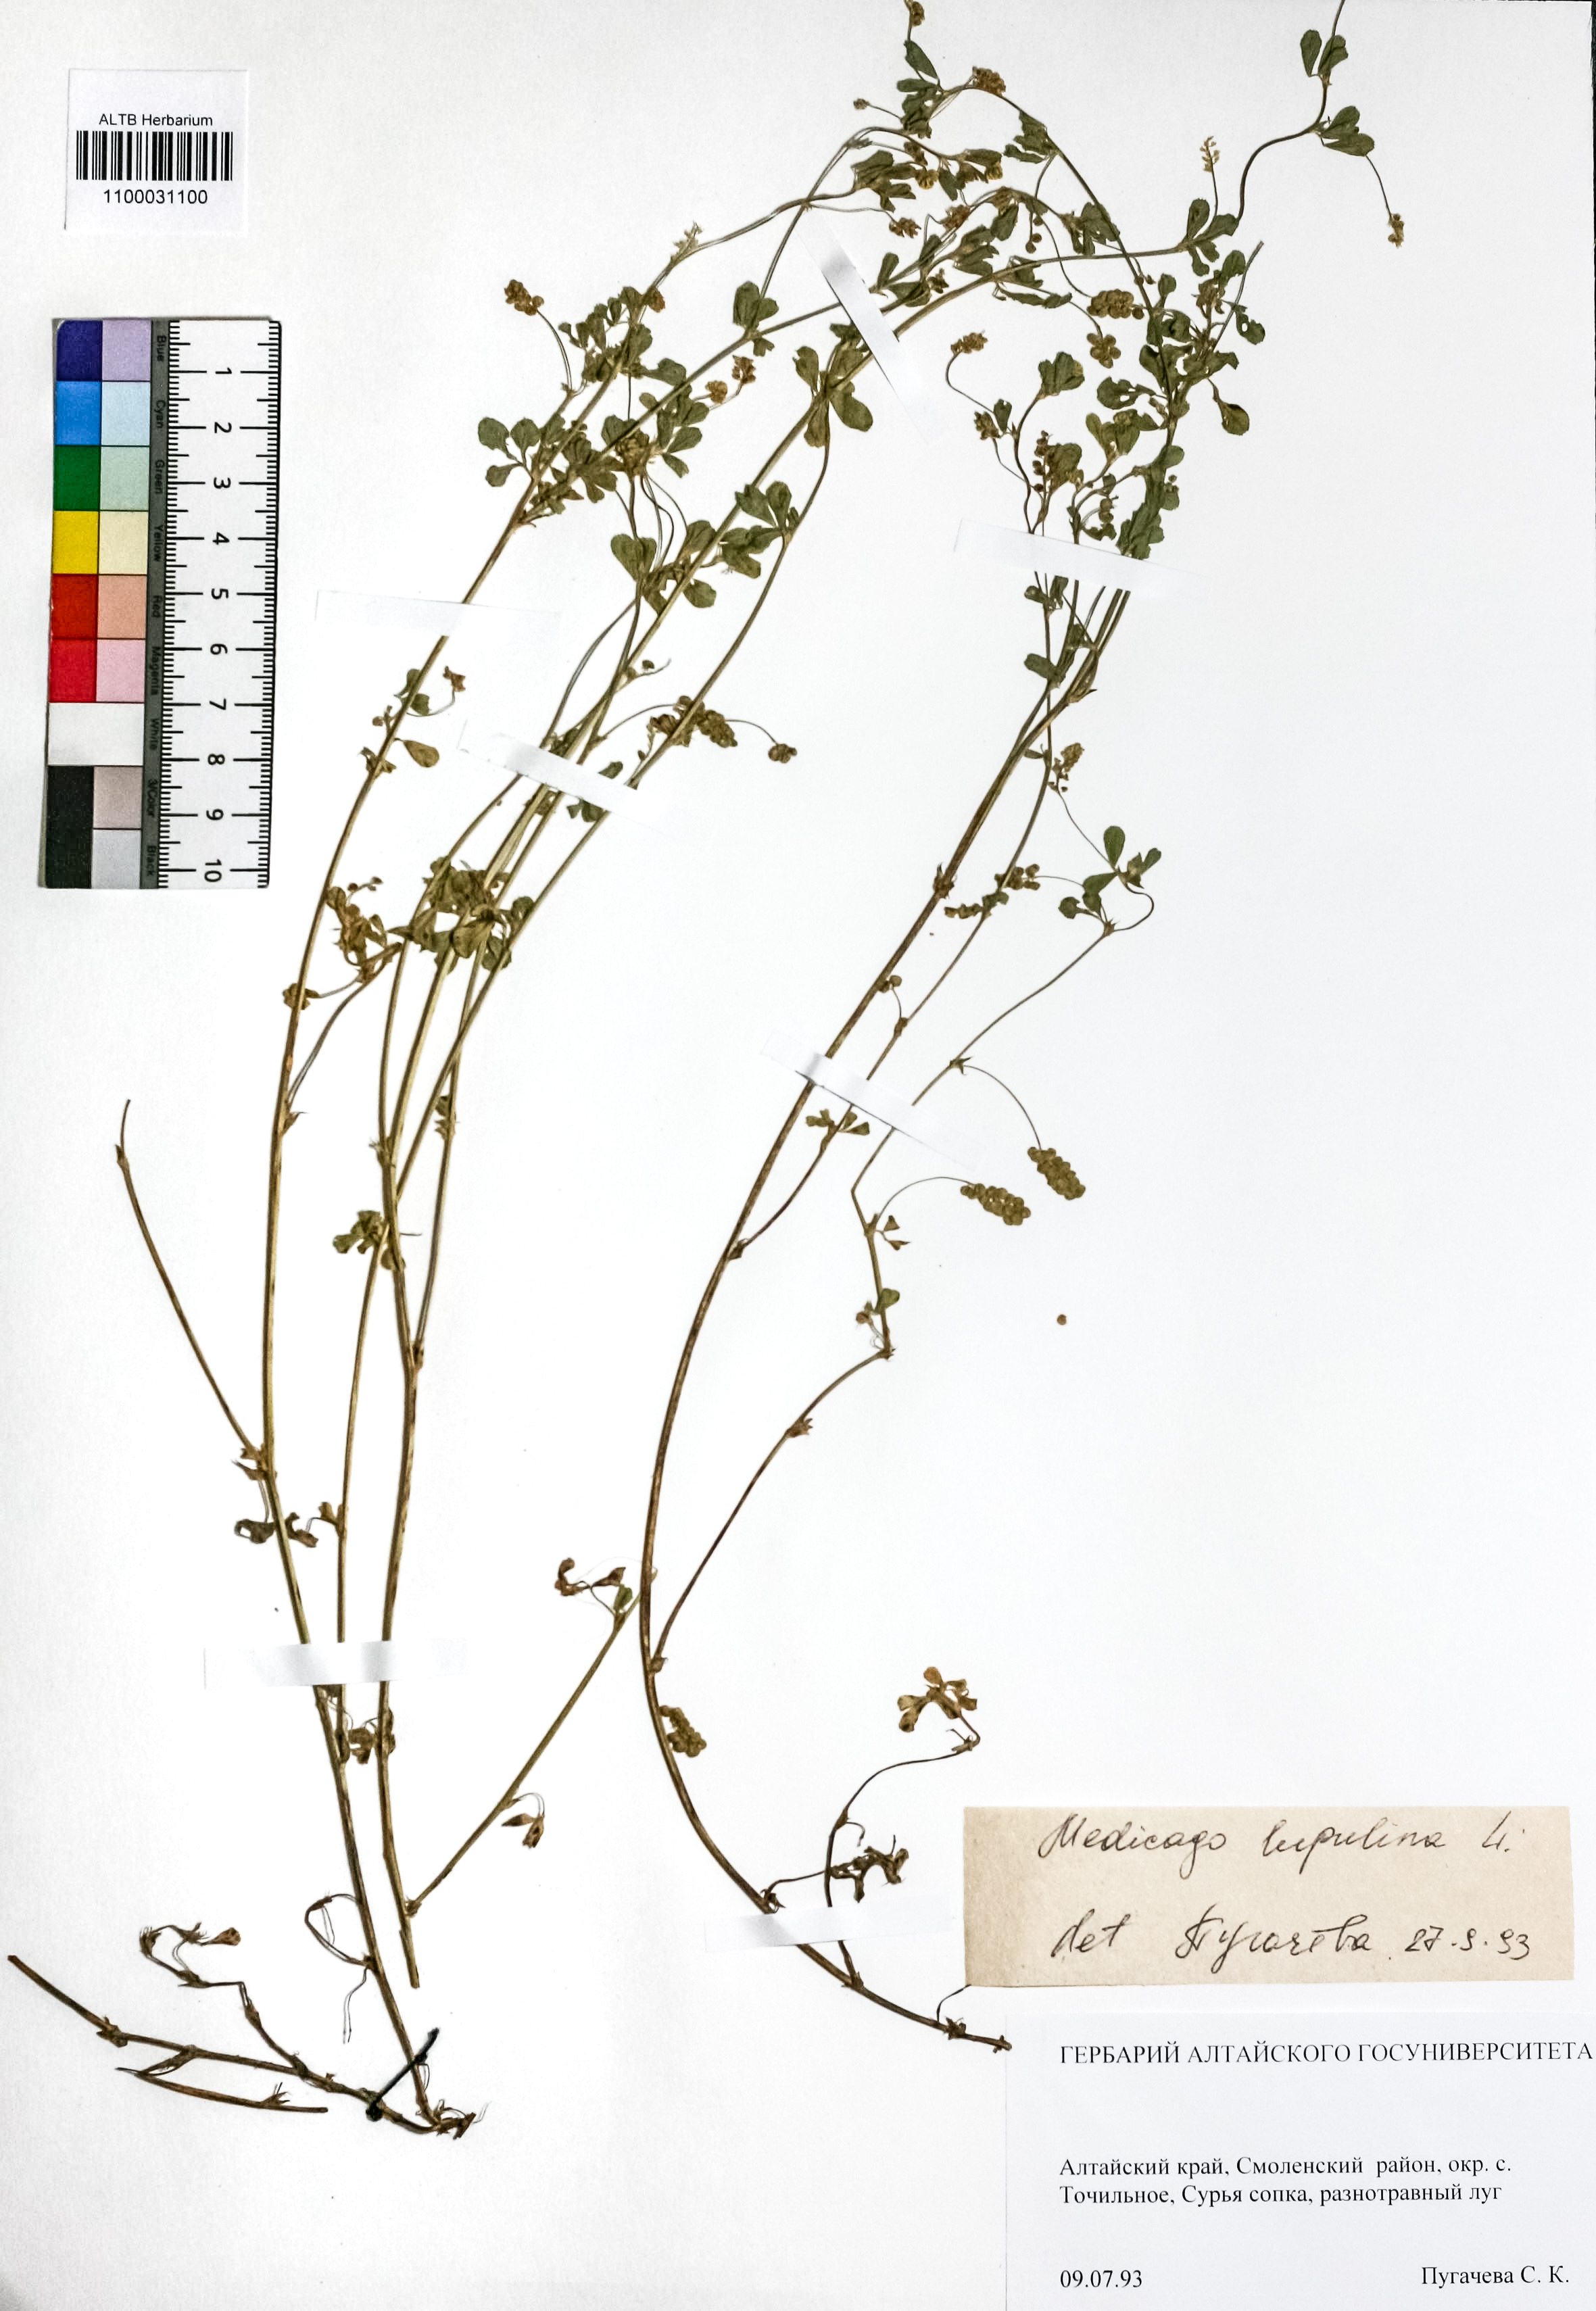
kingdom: Plantae
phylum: Tracheophyta
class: Magnoliopsida
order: Fabales
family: Fabaceae
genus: Medicago
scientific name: Medicago lupulina
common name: Black medick
